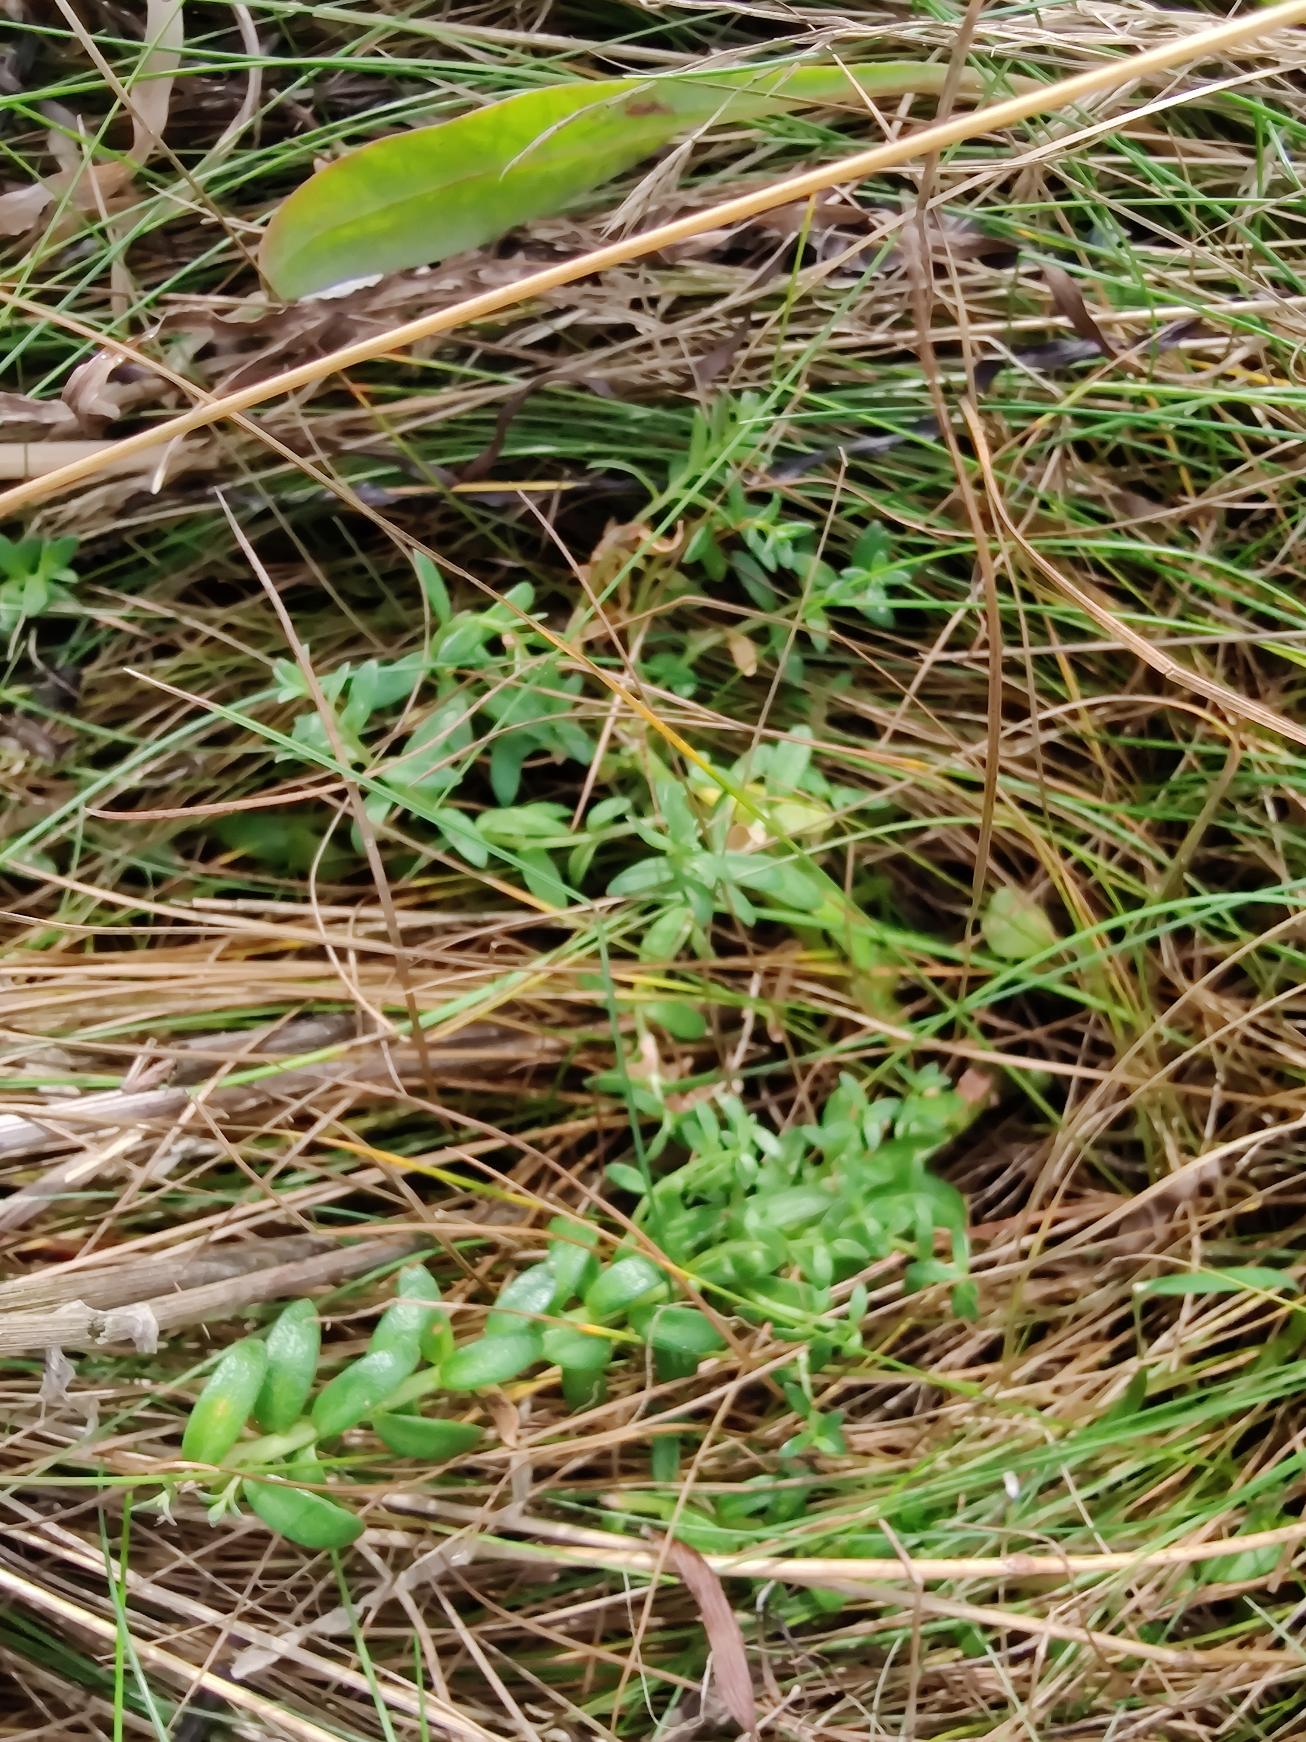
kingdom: Plantae
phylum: Tracheophyta
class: Magnoliopsida
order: Ericales
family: Primulaceae
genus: Lysimachia
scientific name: Lysimachia maritima
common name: Sandkryb
